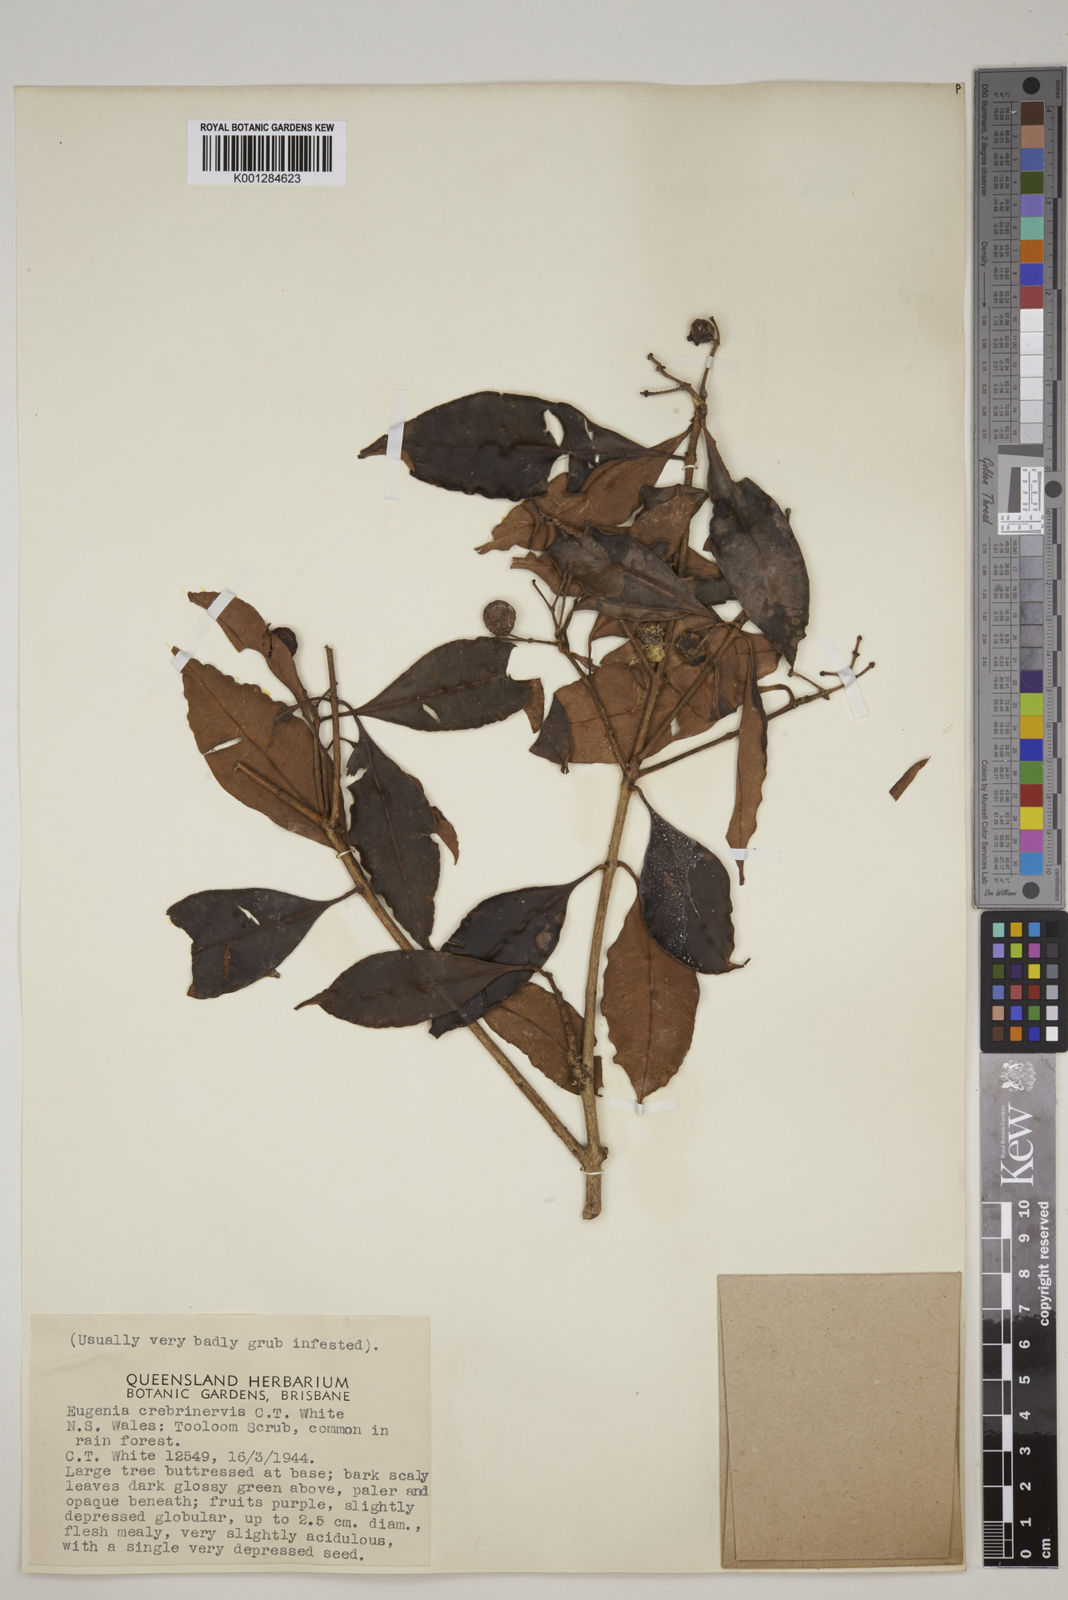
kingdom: Plantae
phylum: Tracheophyta
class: Magnoliopsida
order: Myrtales
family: Myrtaceae
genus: Syzygium
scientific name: Syzygium crebrinerve
